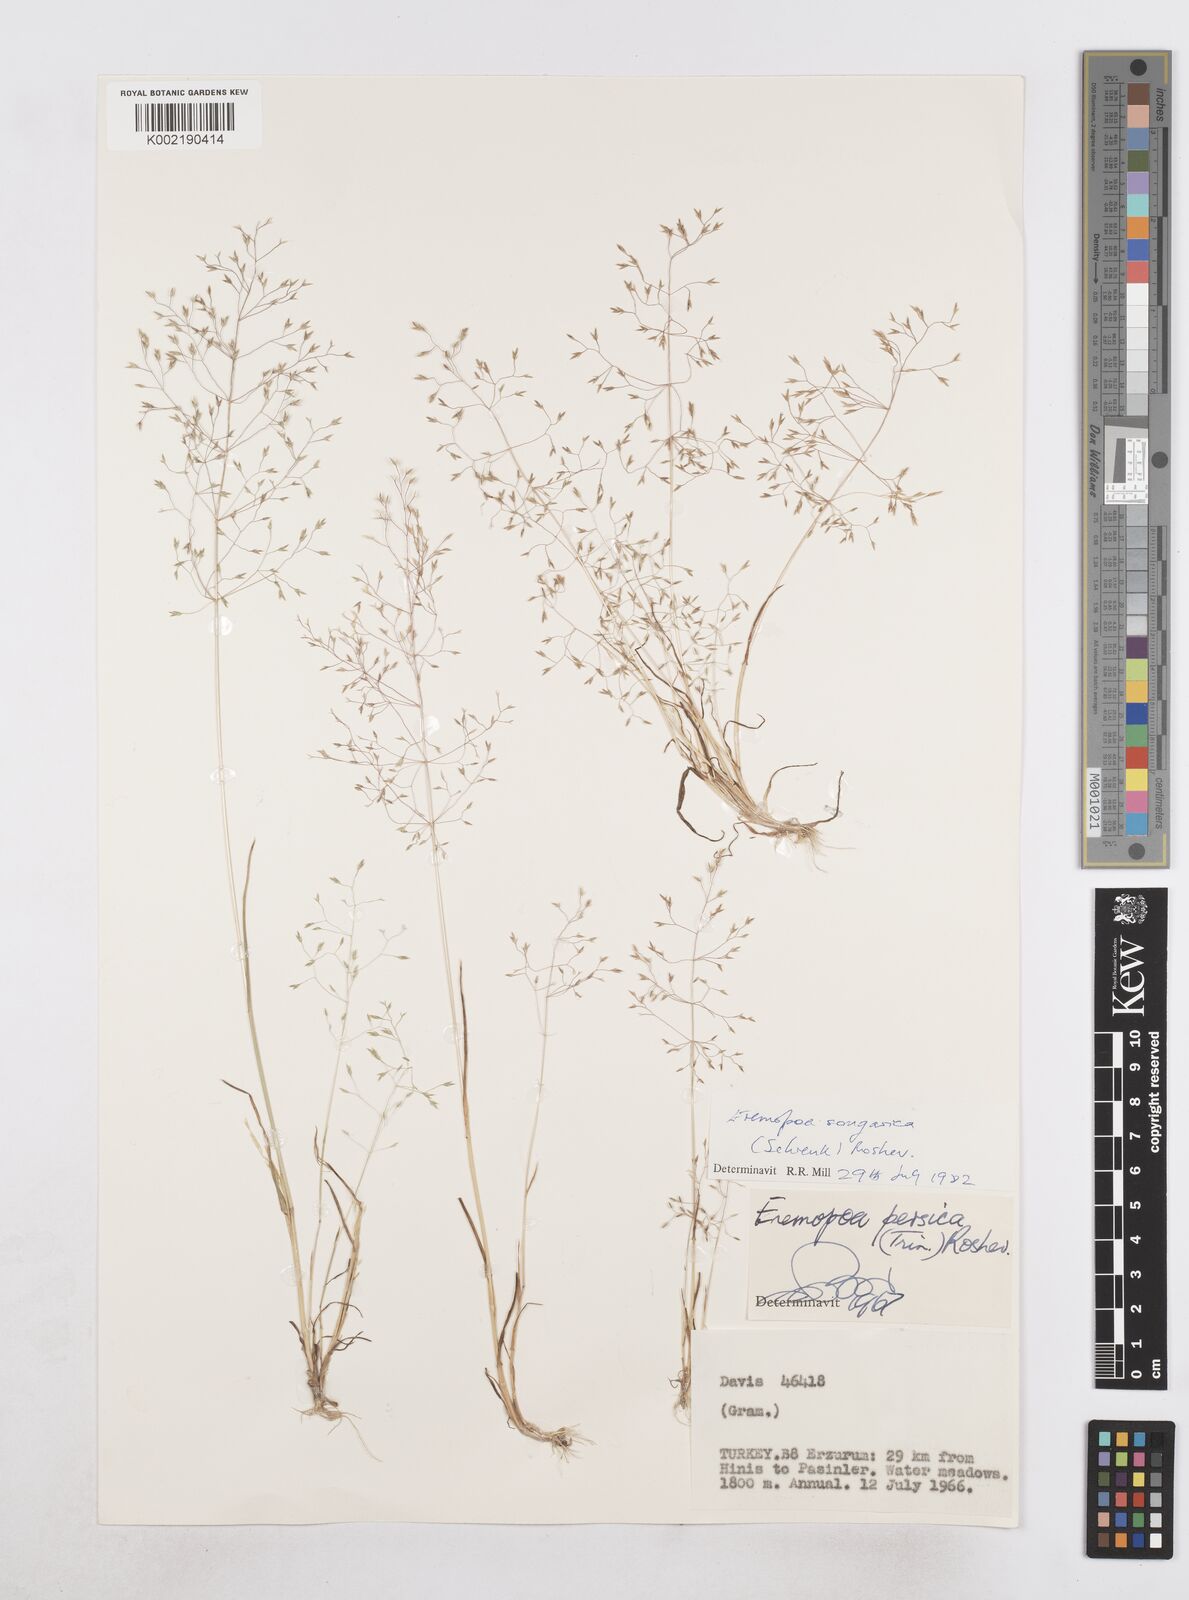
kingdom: Plantae
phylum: Tracheophyta
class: Liliopsida
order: Poales
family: Poaceae
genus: Poa
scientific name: Poa diaphora
